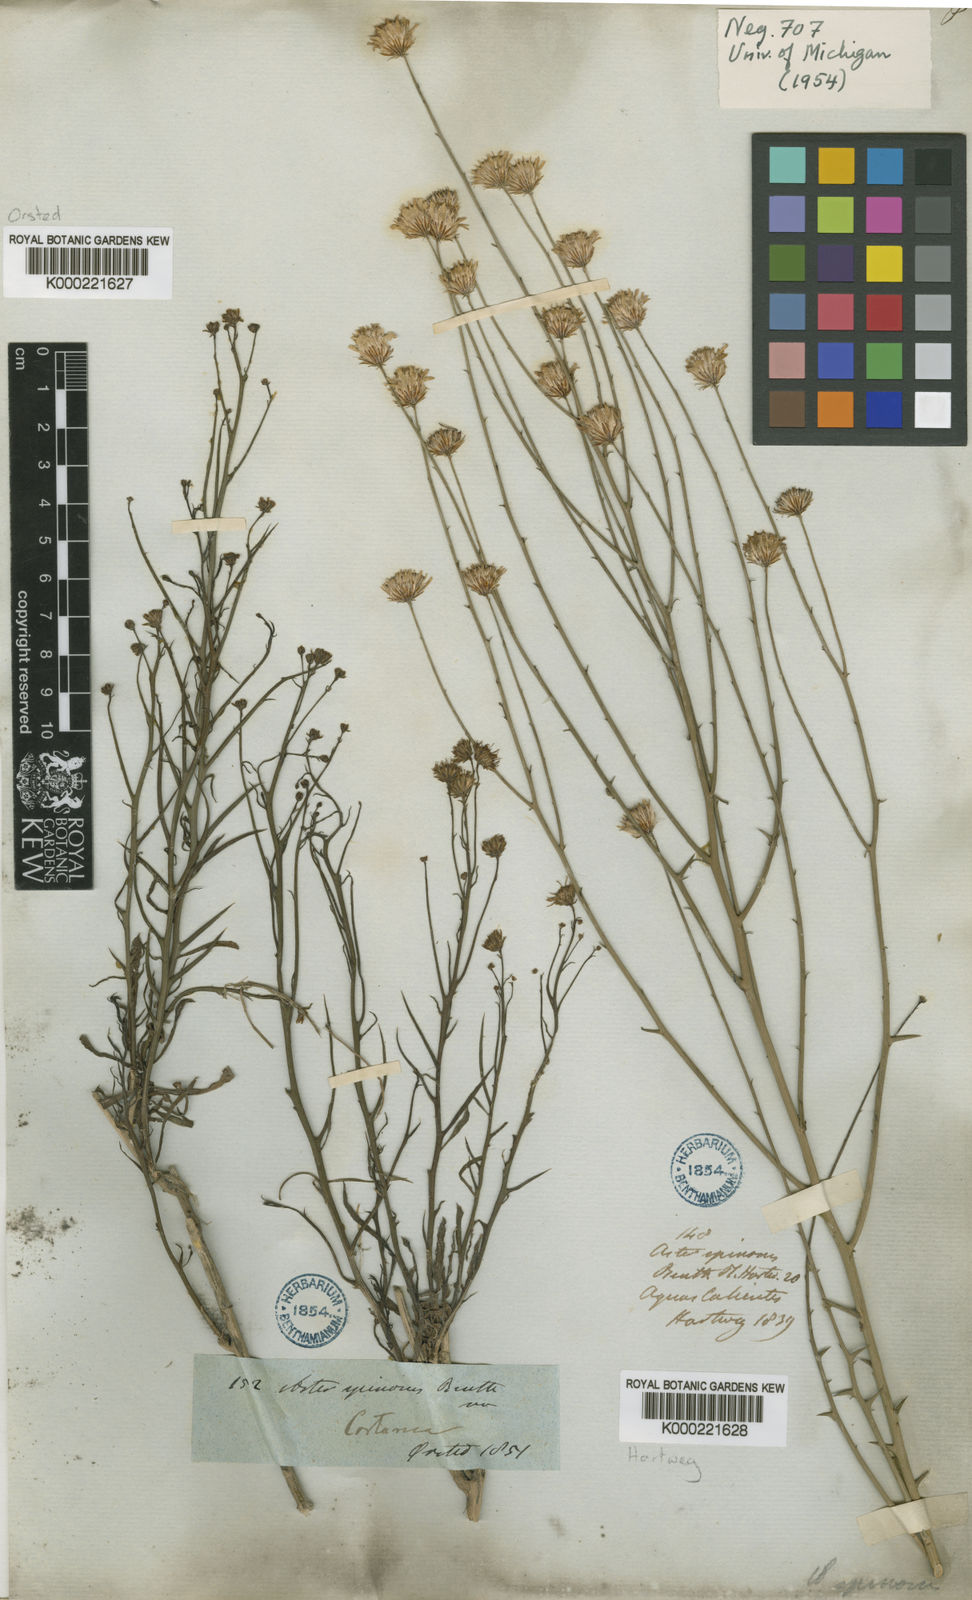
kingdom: Plantae
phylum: Tracheophyta
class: Magnoliopsida
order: Asterales
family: Asteraceae
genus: Chloracantha
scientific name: Chloracantha spinosa
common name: Mexican devilweed
